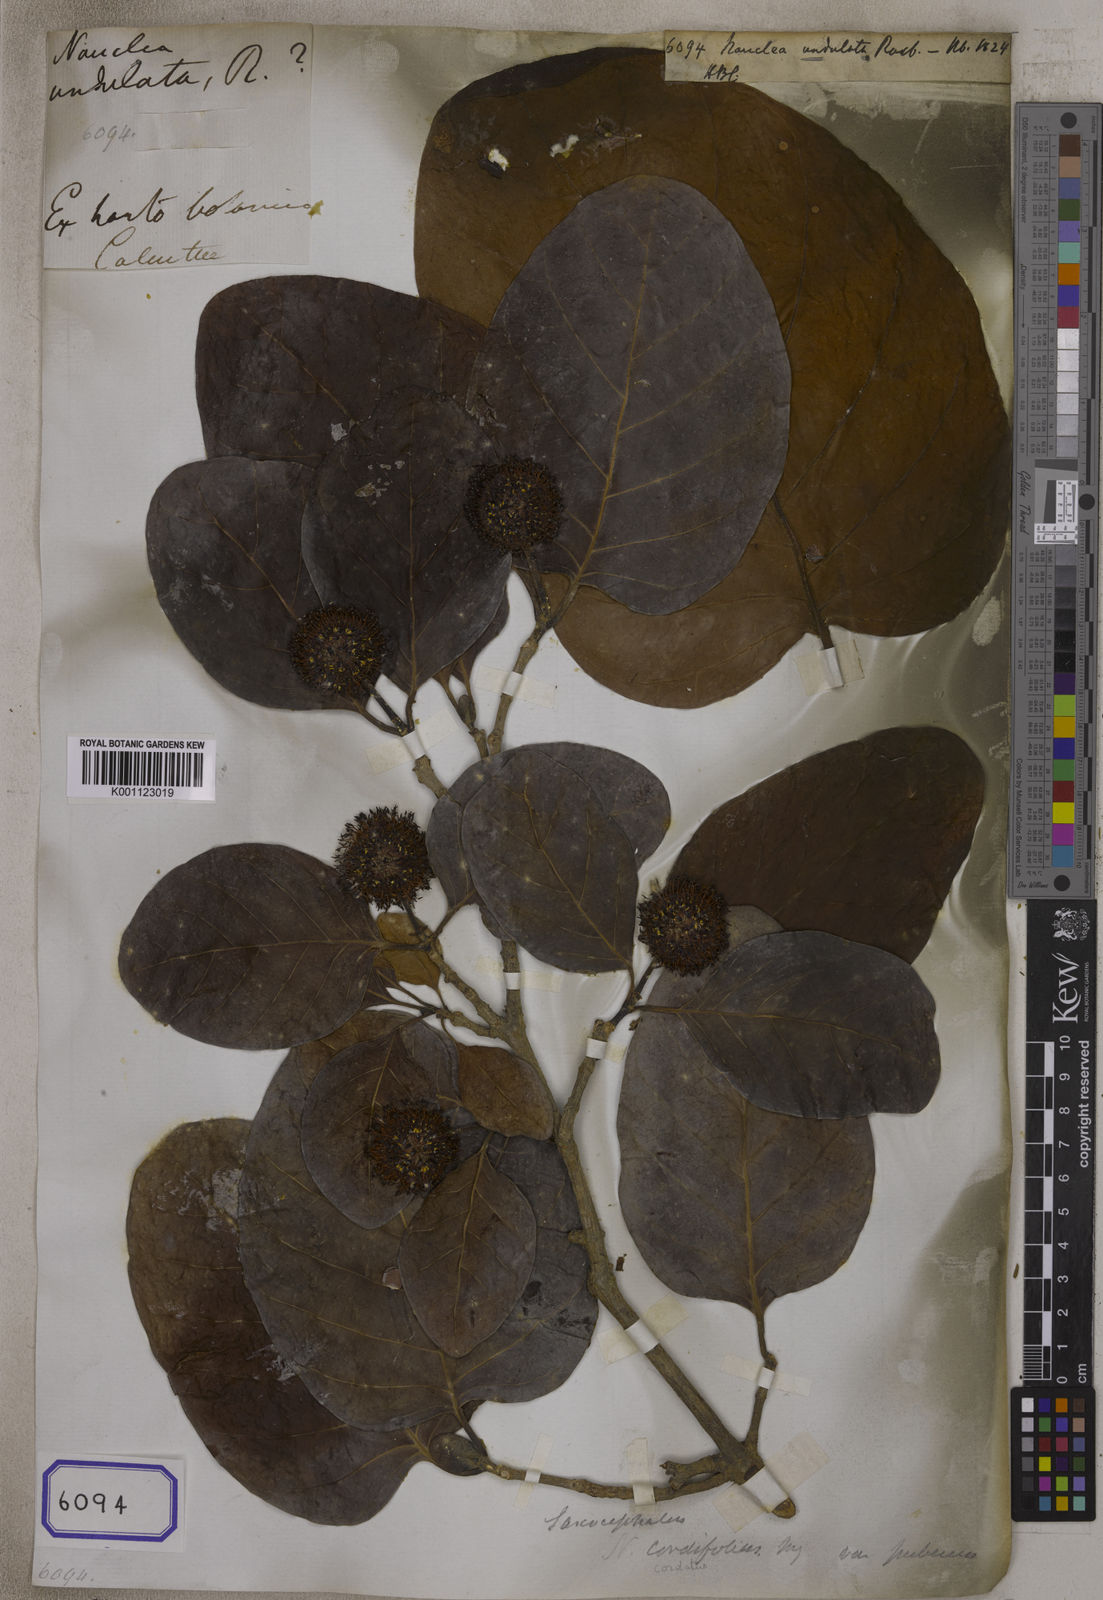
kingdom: Plantae
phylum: Tracheophyta
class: Magnoliopsida
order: Gentianales
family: Rubiaceae
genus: Nauclea
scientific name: Nauclea
